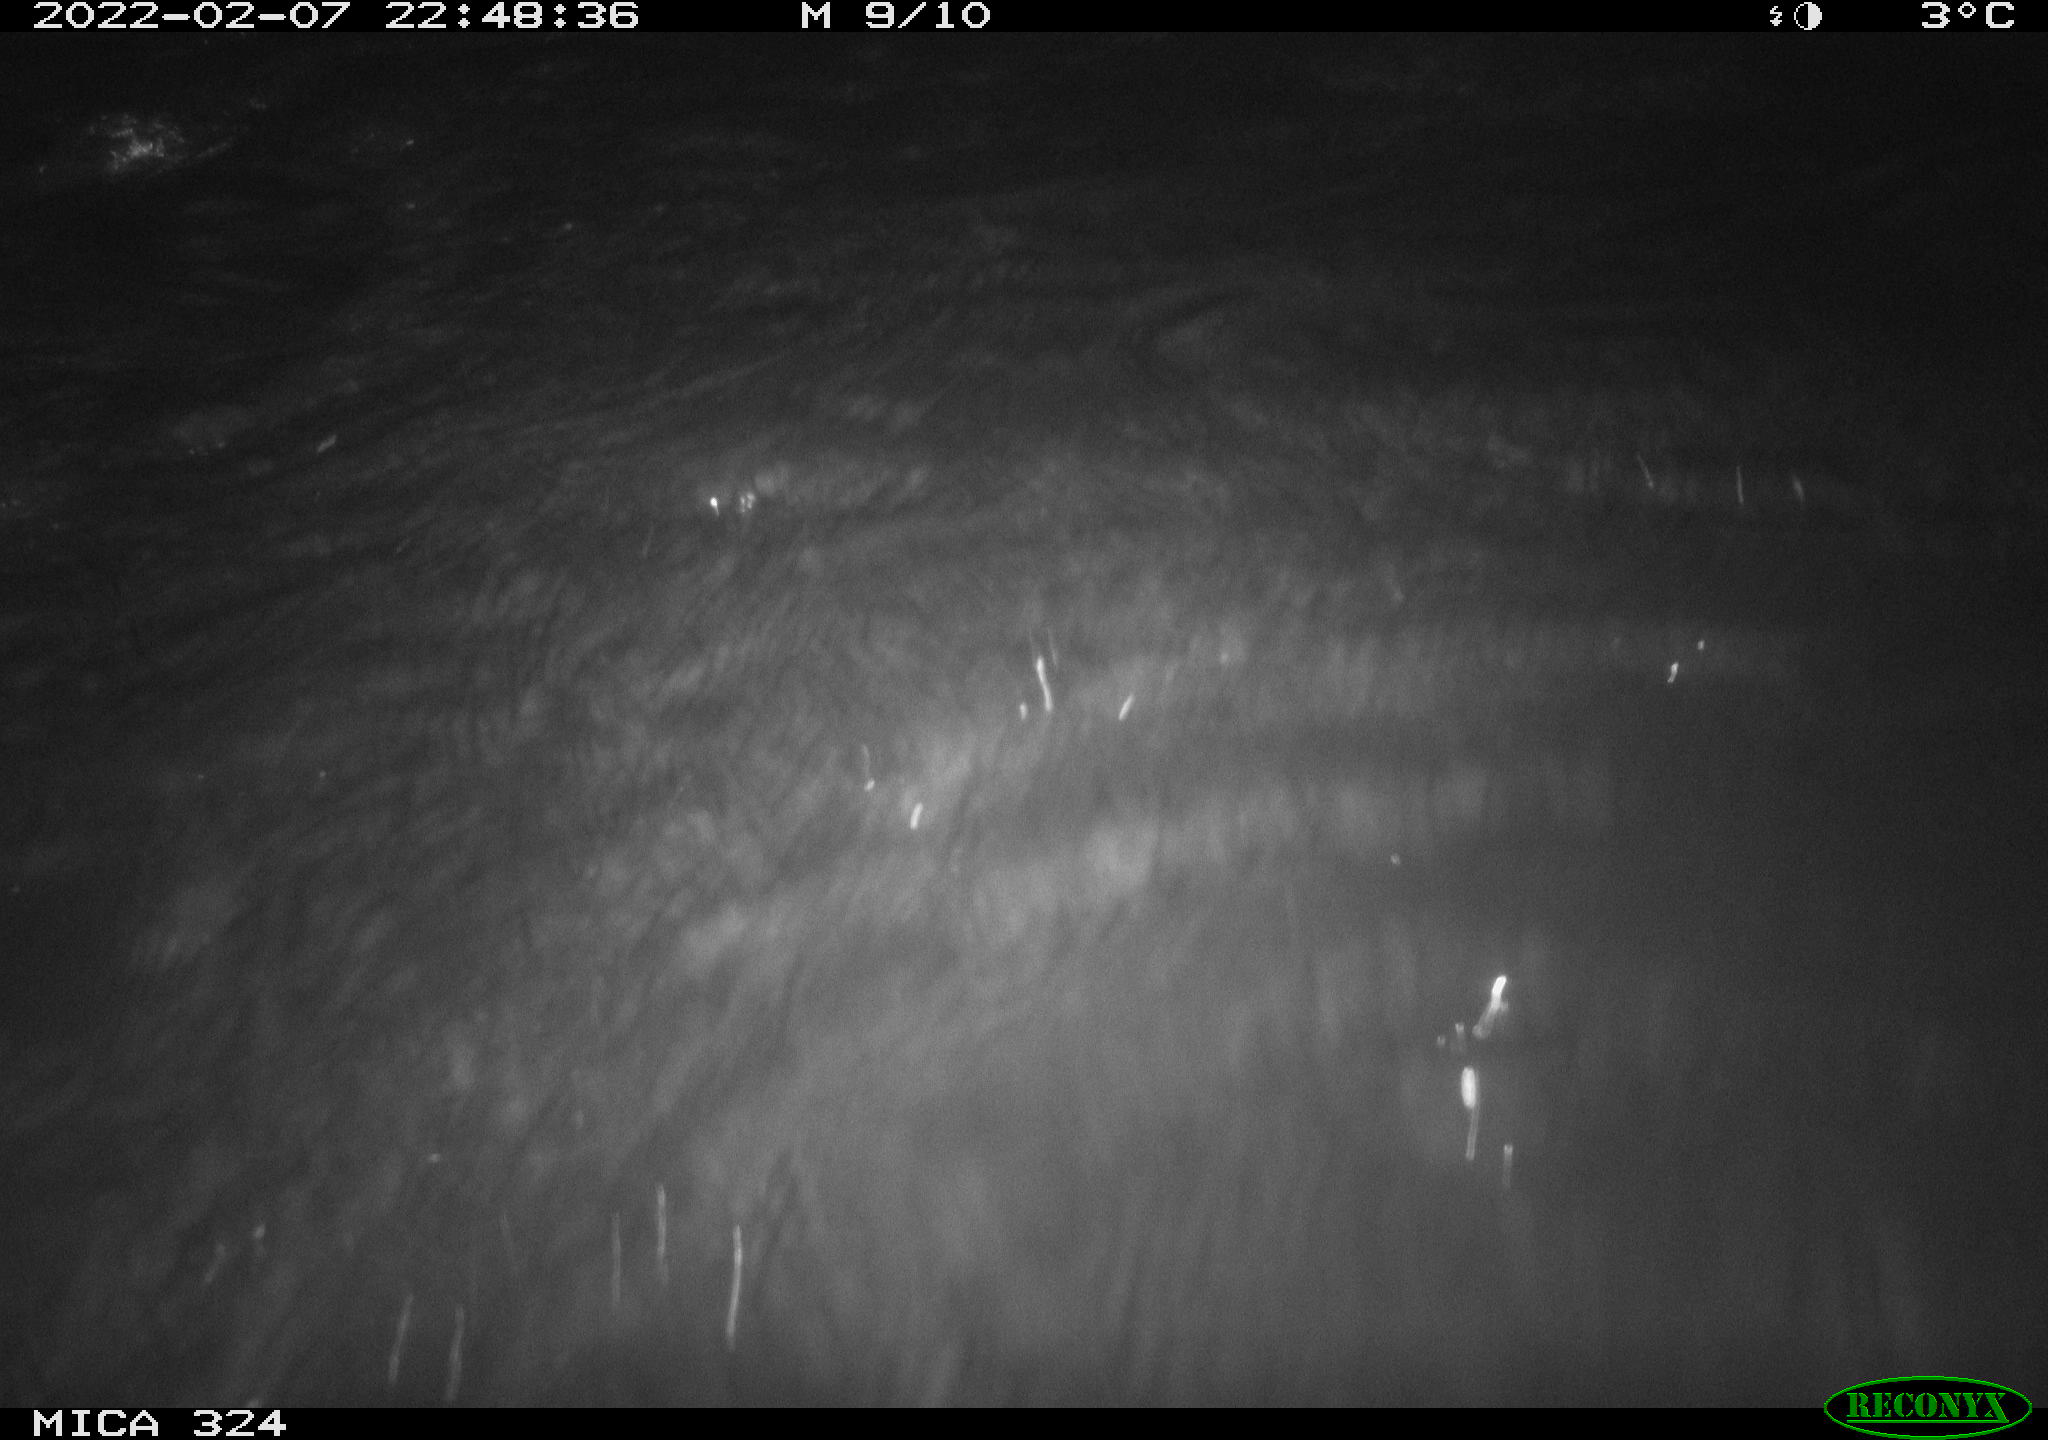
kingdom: Animalia
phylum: Chordata
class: Mammalia
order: Rodentia
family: Cricetidae
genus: Ondatra
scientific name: Ondatra zibethicus
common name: Muskrat
